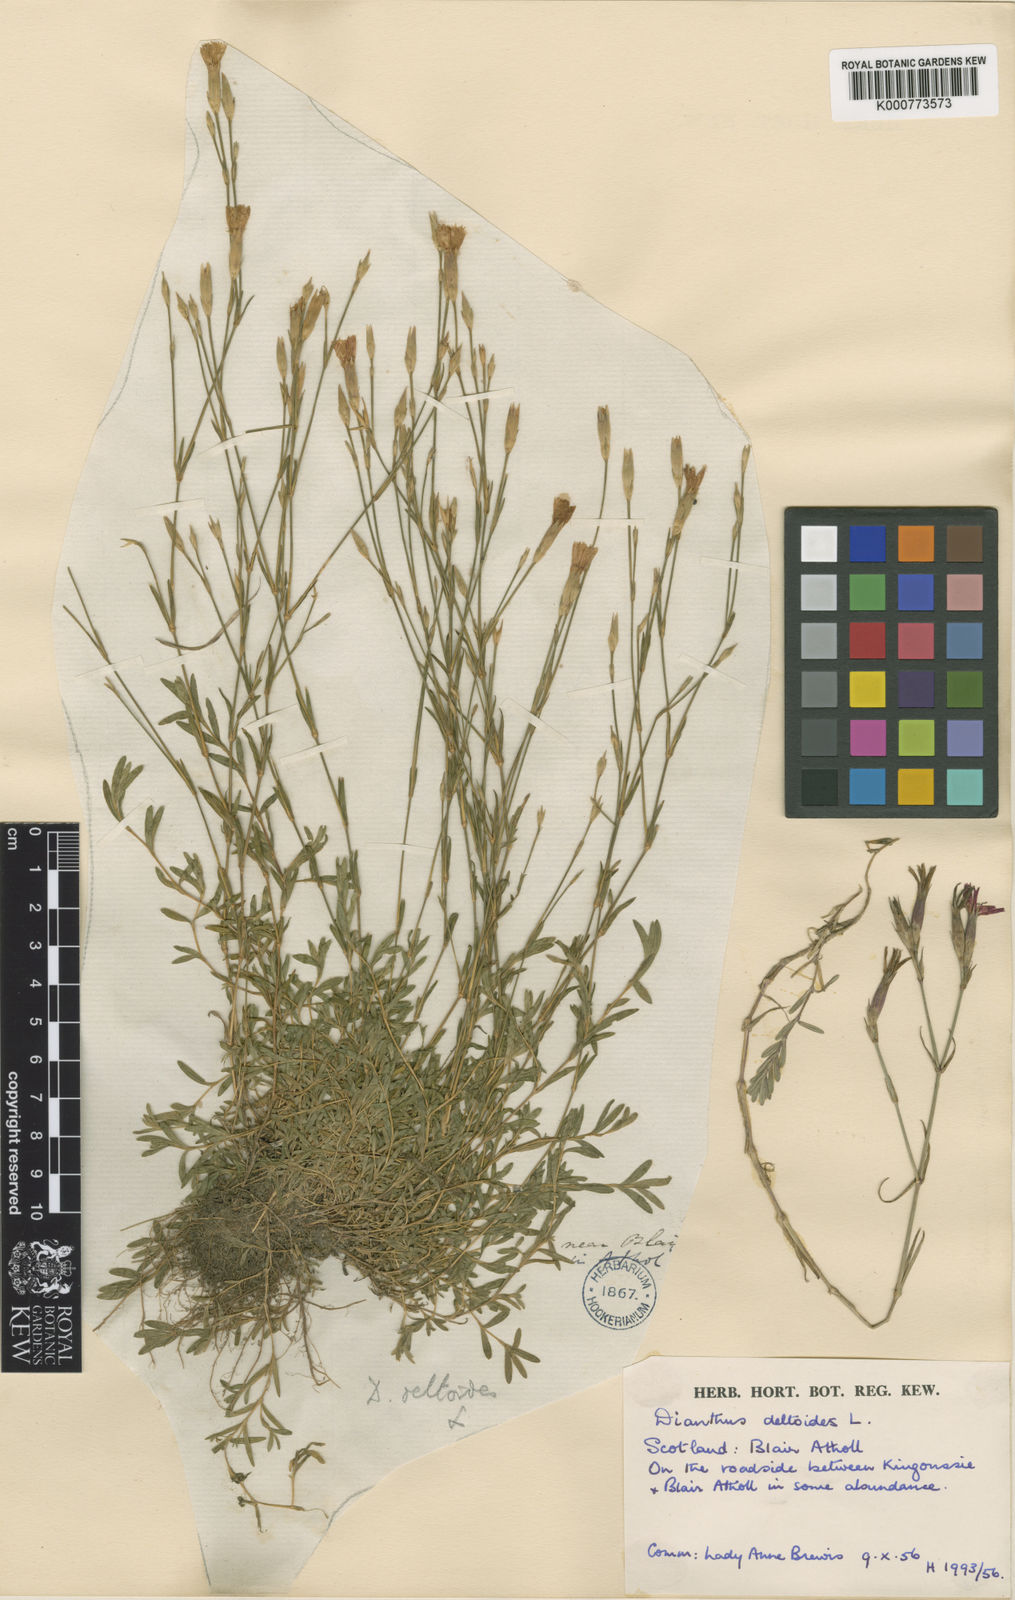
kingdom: Plantae
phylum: Tracheophyta
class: Magnoliopsida
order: Caryophyllales
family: Caryophyllaceae
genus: Dianthus
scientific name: Dianthus deltoides
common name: Maiden pink
